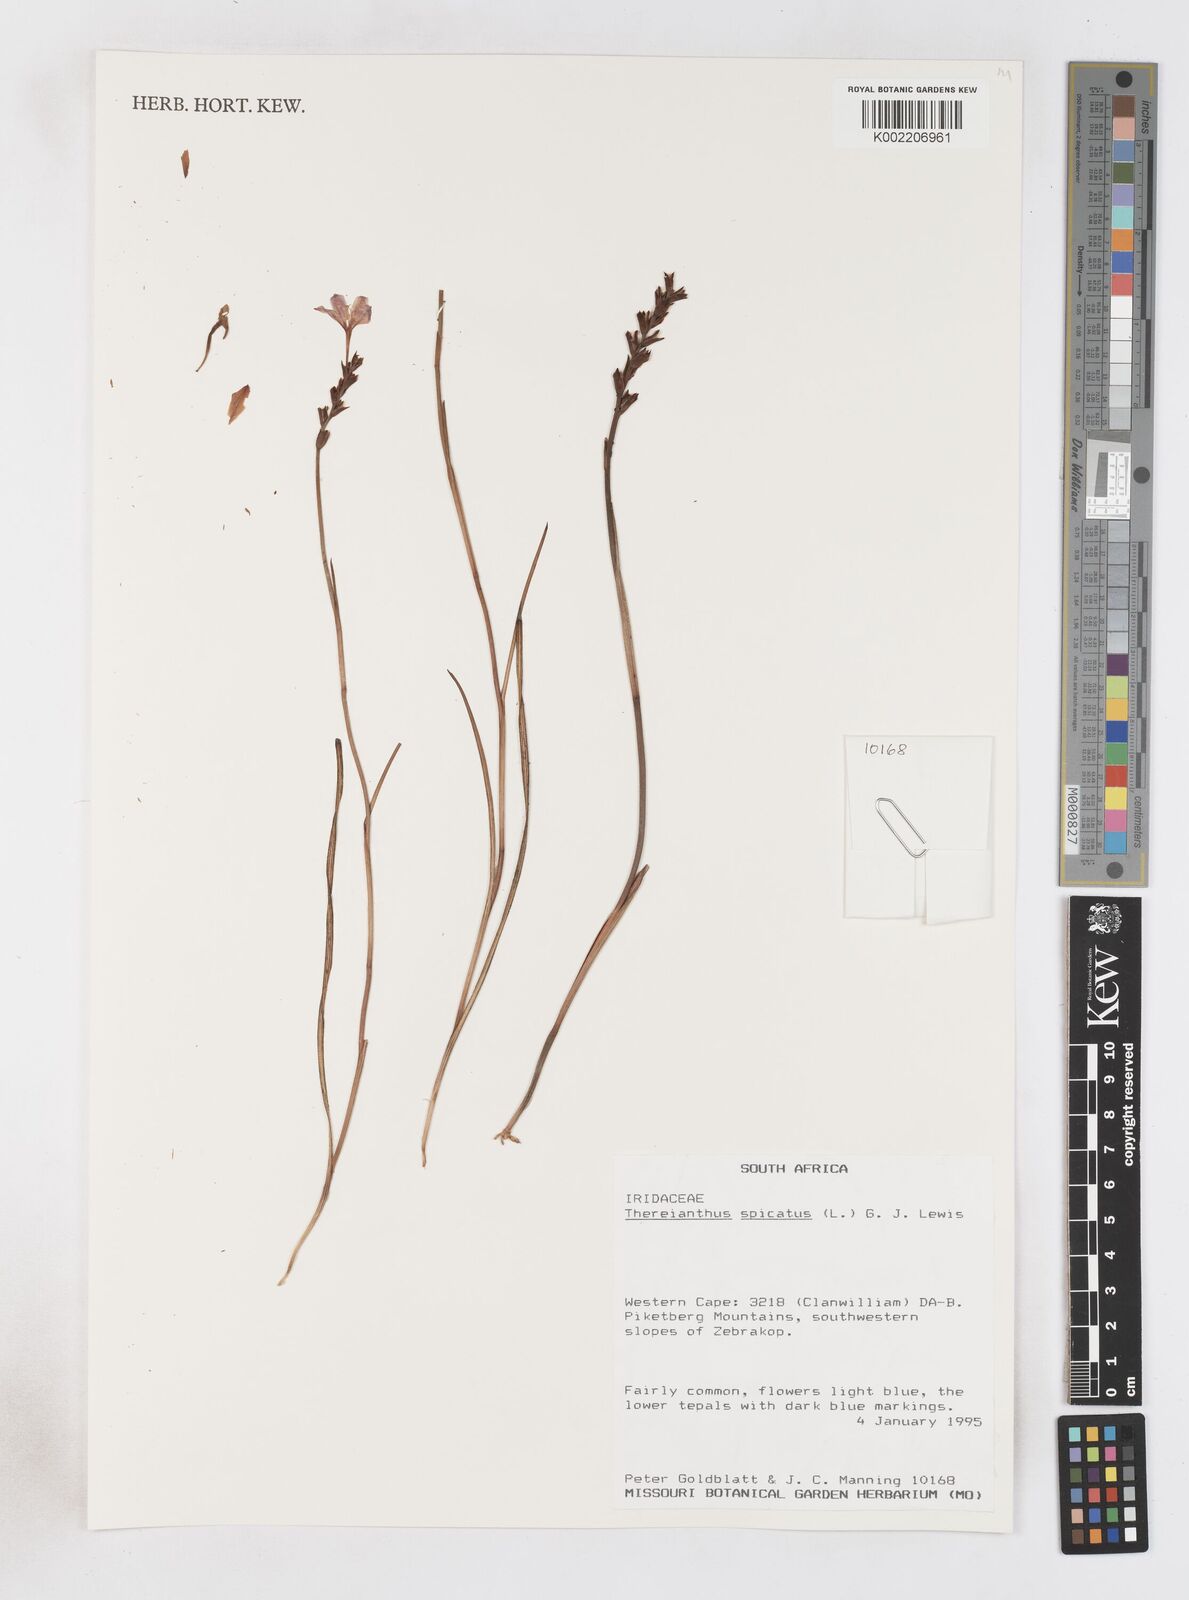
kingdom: Plantae
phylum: Tracheophyta
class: Liliopsida
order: Asparagales
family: Iridaceae
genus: Thereianthus
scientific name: Thereianthus spicatus
